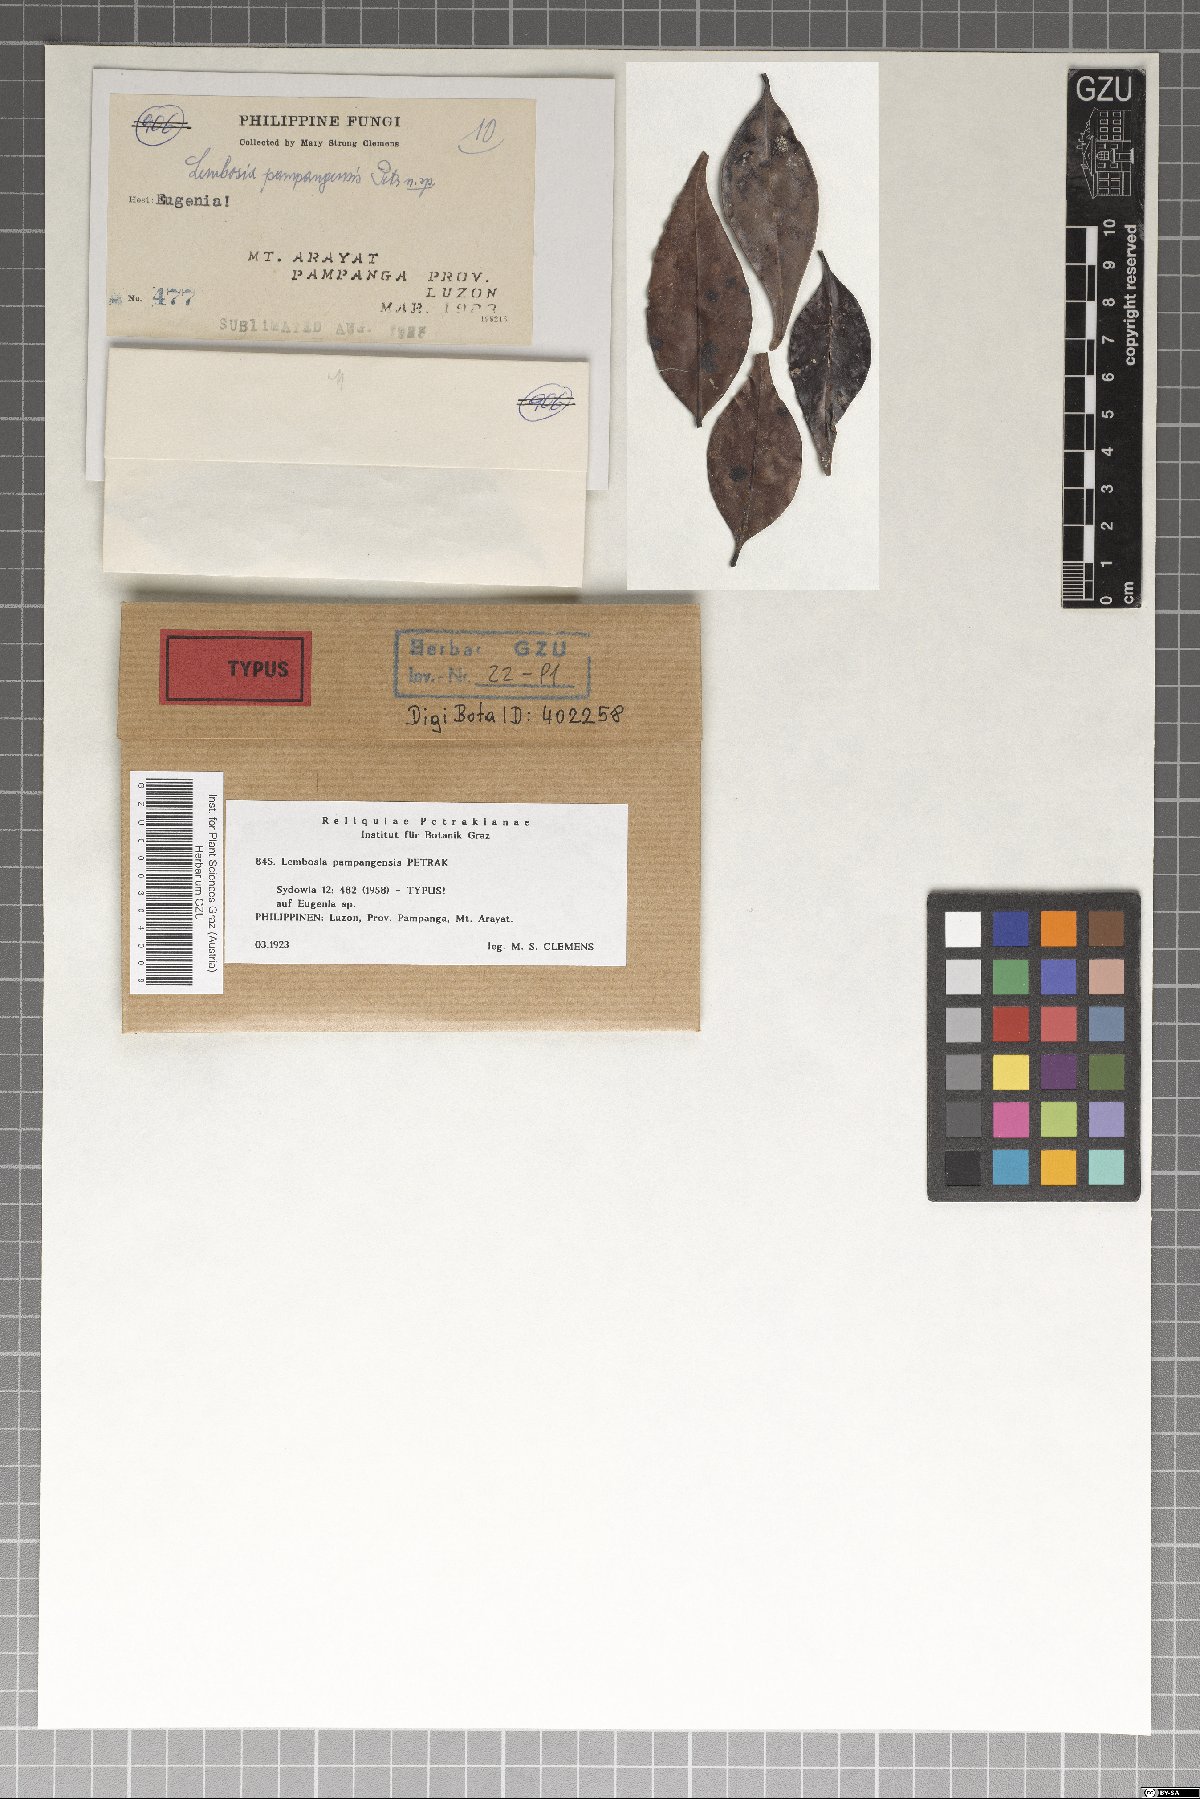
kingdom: Fungi
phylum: Ascomycota
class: Dothideomycetes
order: Asterinales
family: Asterinaceae
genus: Lembosia
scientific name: Lembosia pampangensis
